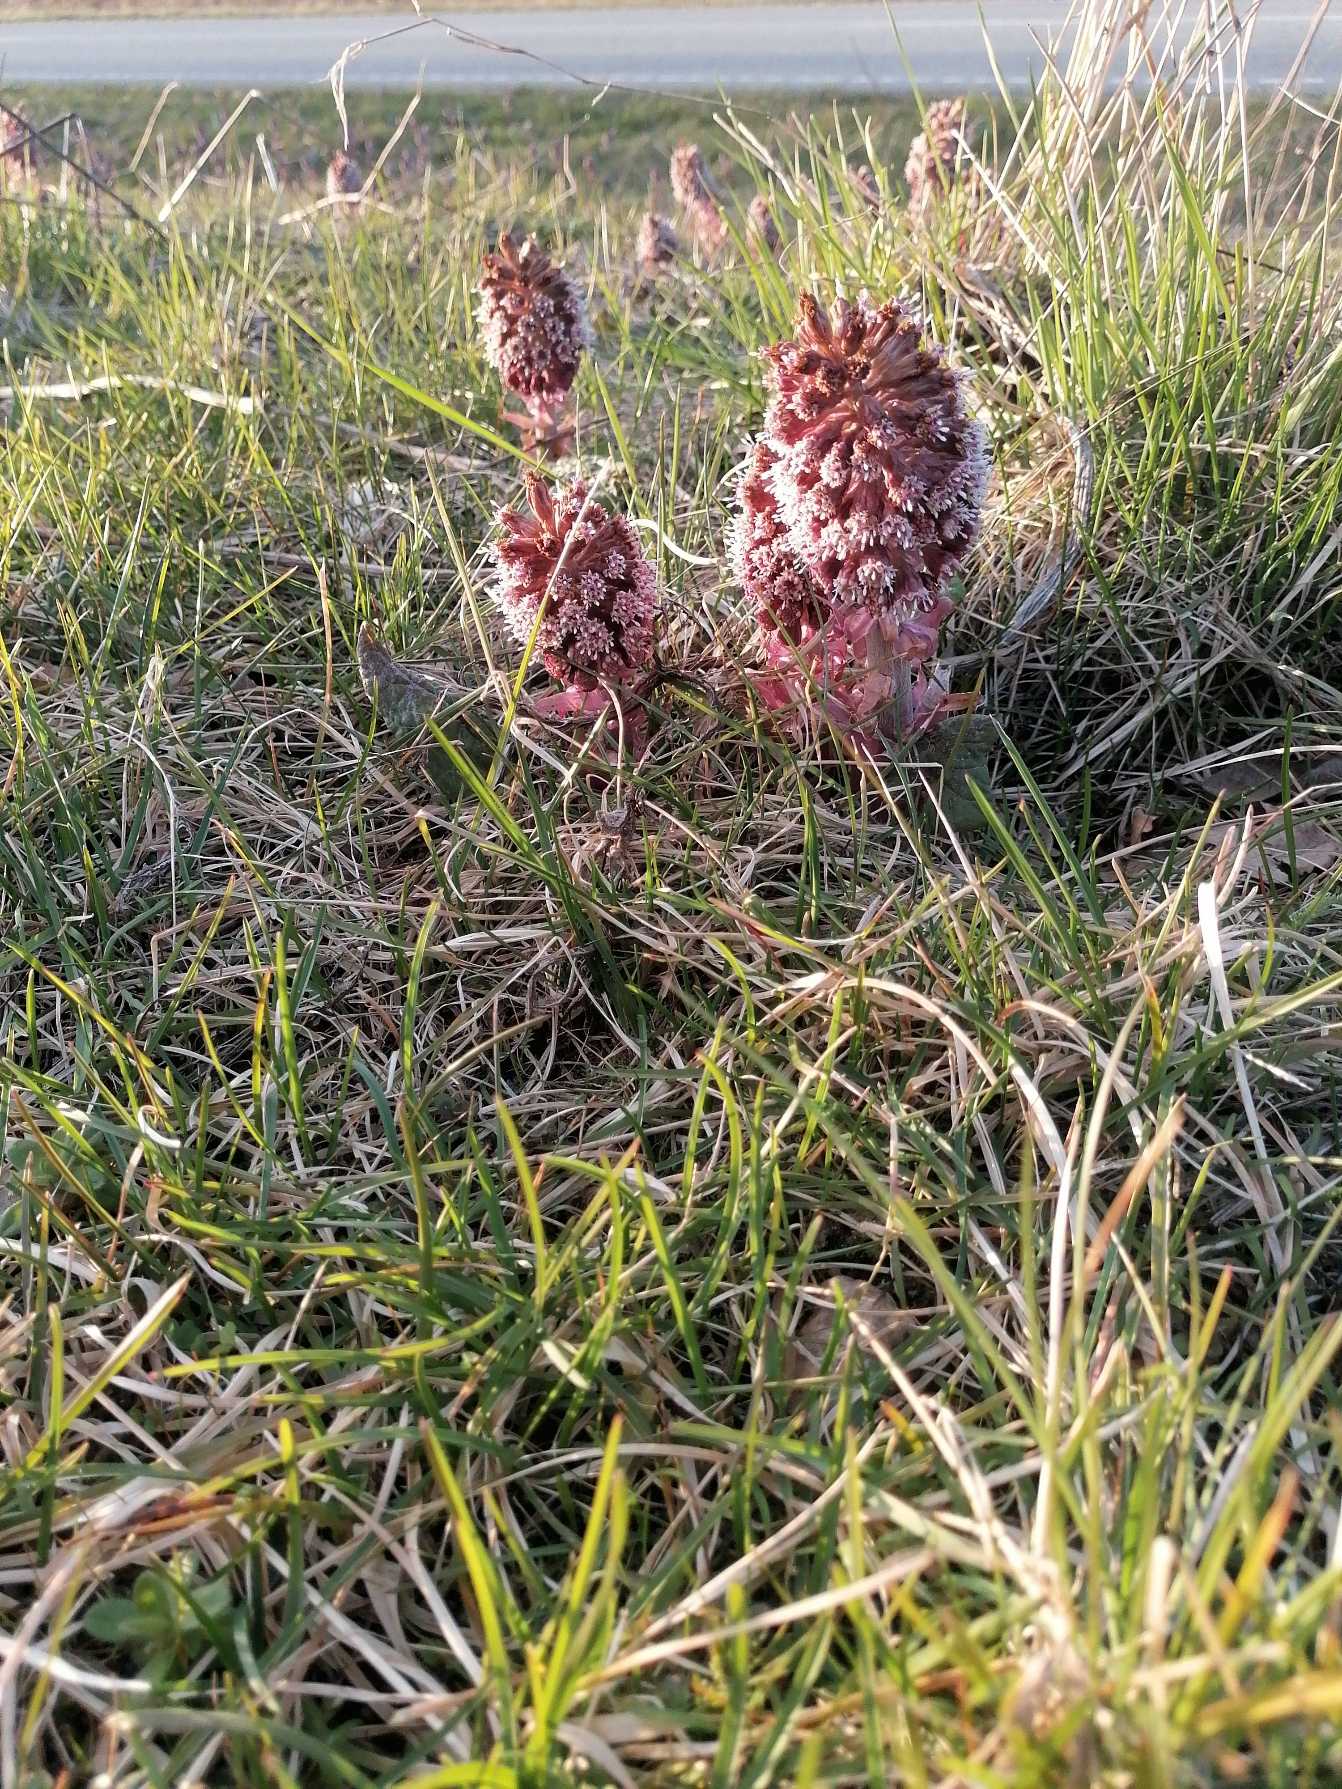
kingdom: Plantae
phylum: Tracheophyta
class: Magnoliopsida
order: Asterales
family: Asteraceae
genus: Petasites
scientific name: Petasites hybridus
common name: Rød hestehov
